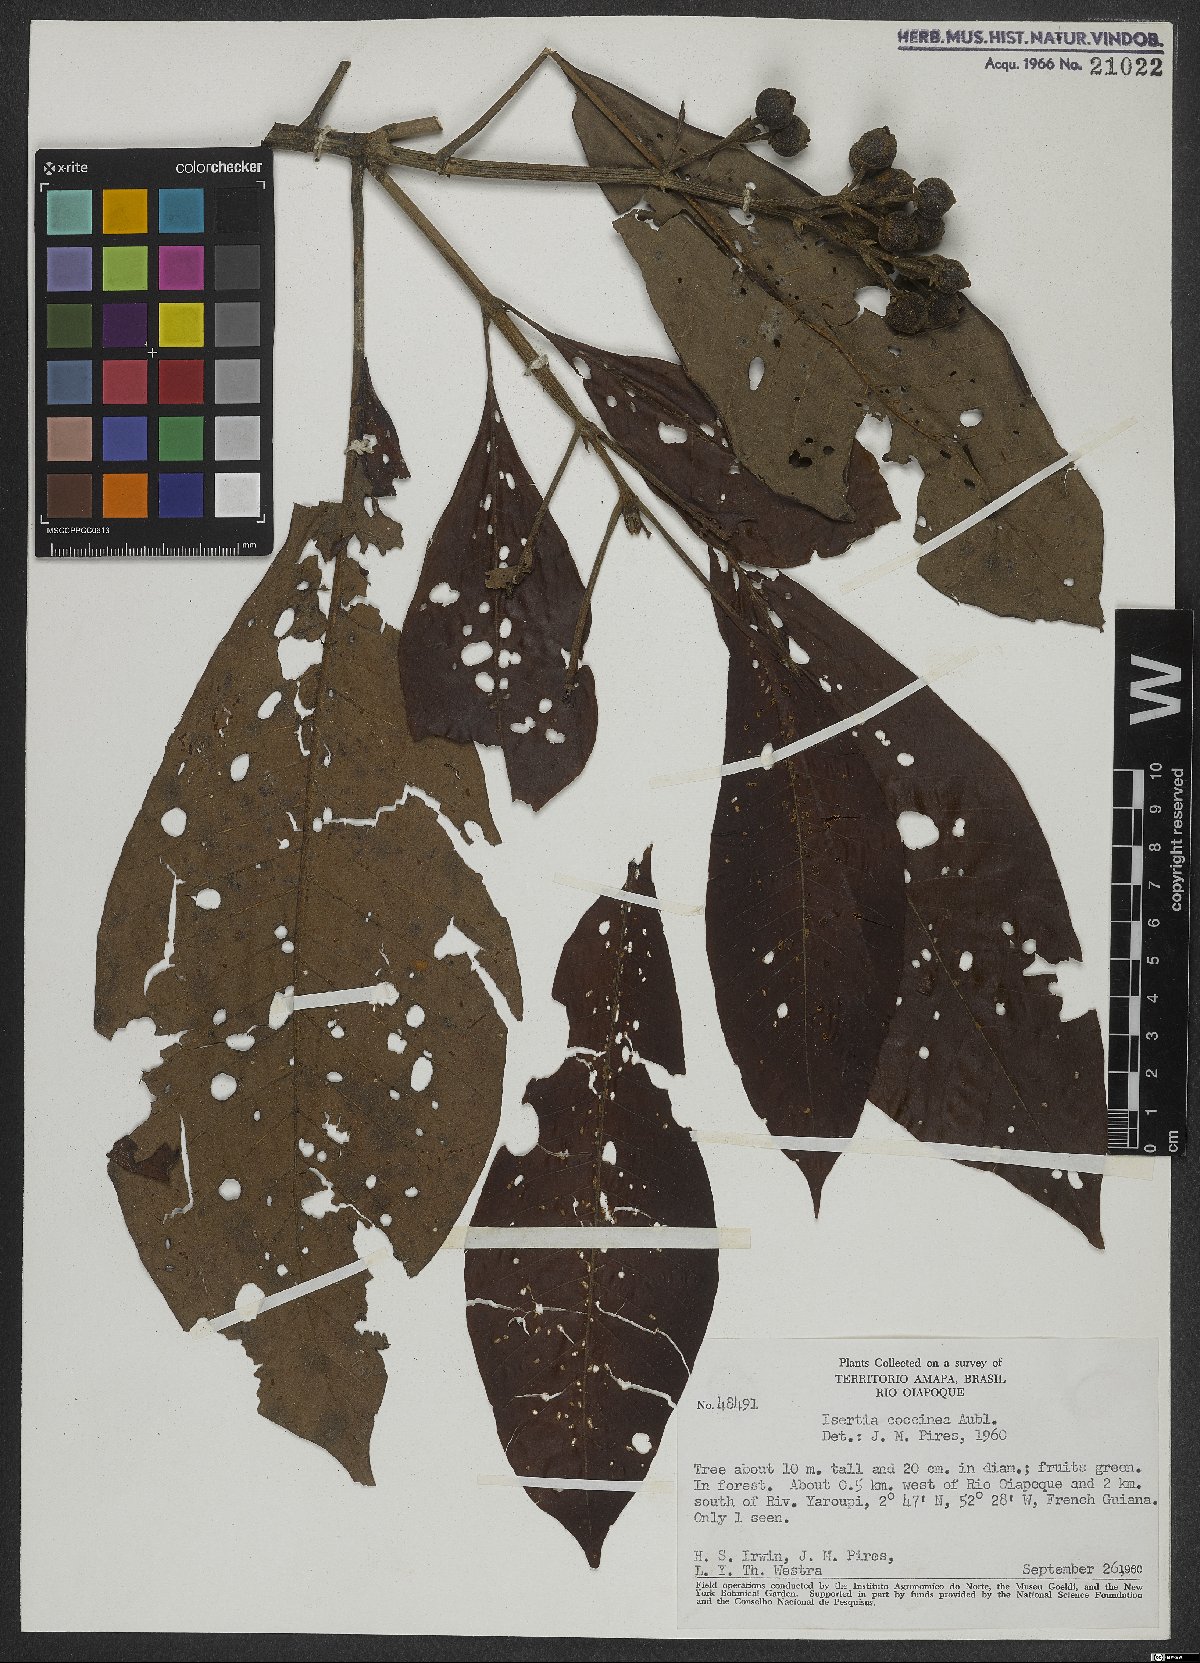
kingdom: Plantae
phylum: Tracheophyta
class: Magnoliopsida
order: Gentianales
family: Rubiaceae
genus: Isertia
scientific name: Isertia coccinea
